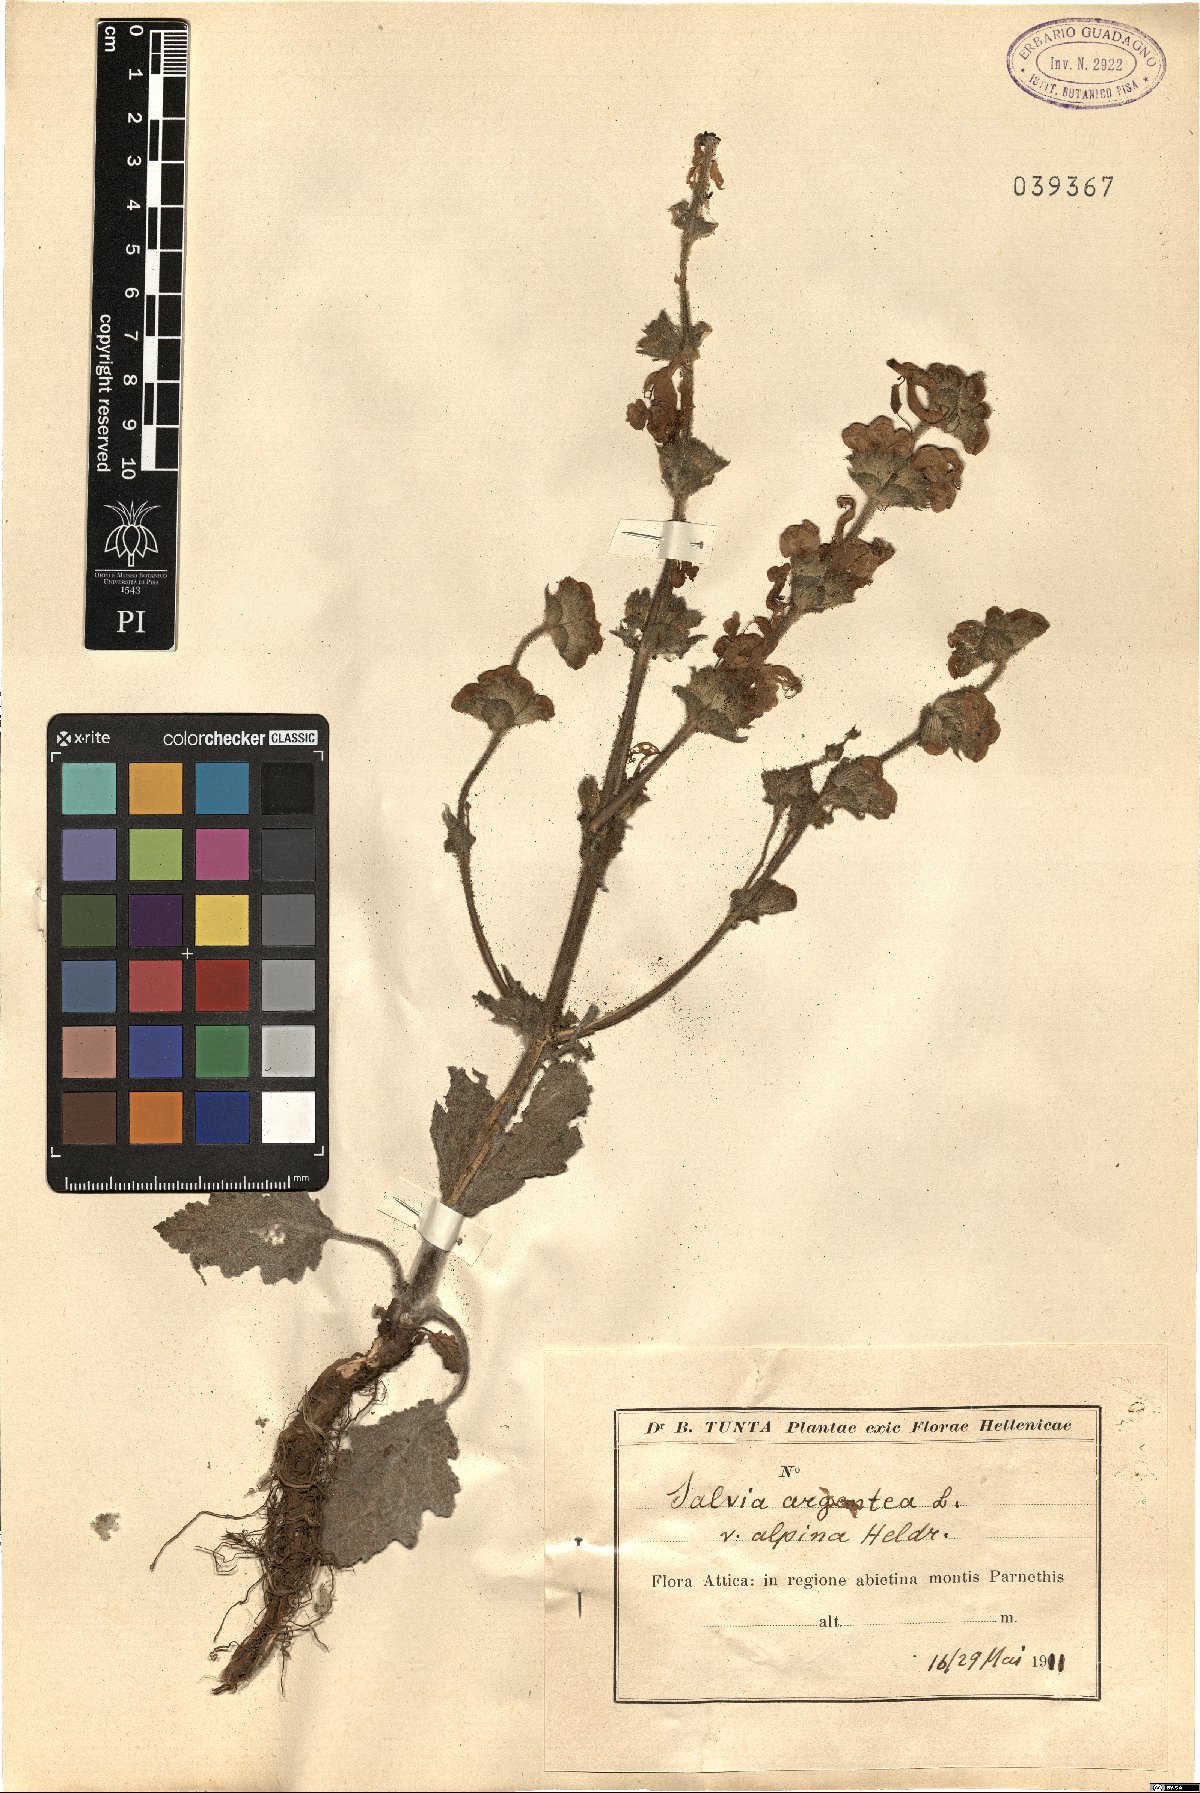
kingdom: Plantae
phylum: Tracheophyta
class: Magnoliopsida
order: Lamiales
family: Lamiaceae
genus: Salvia
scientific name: Salvia argentea
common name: Silver sage
